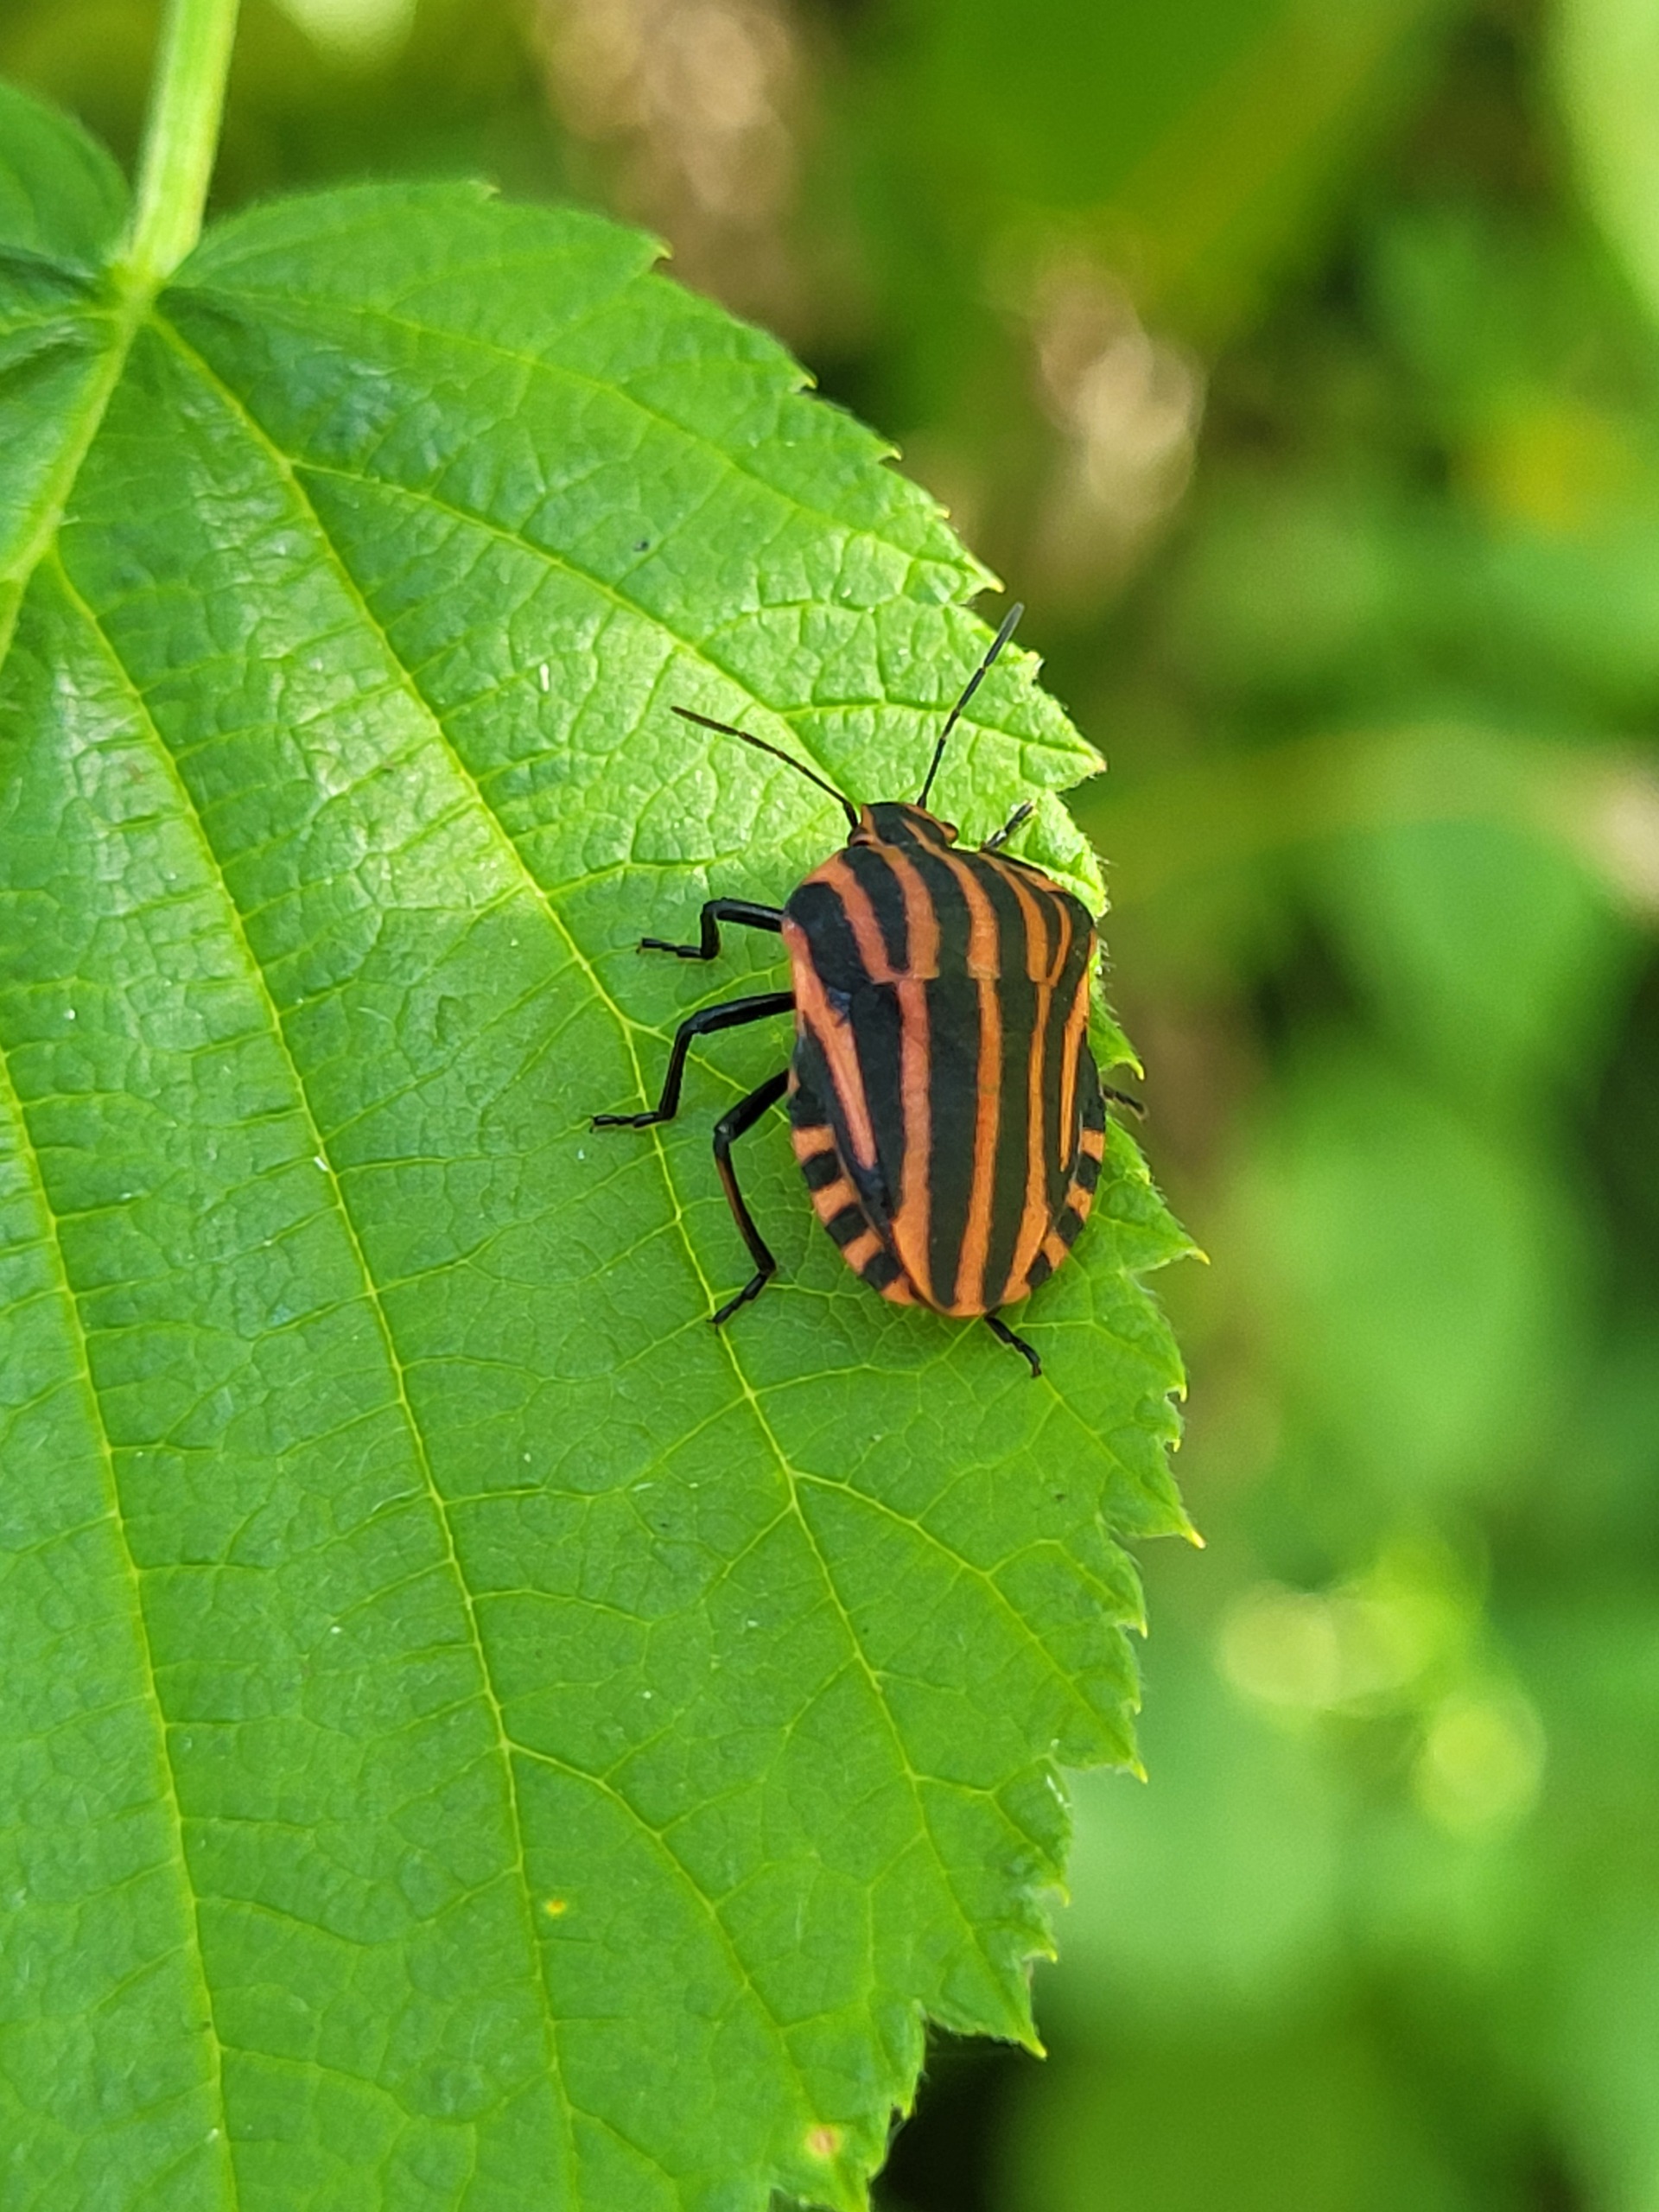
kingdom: Animalia
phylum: Arthropoda
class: Insecta
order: Hemiptera
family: Pentatomidae
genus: Graphosoma
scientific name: Graphosoma italicum
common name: Stribetæge
